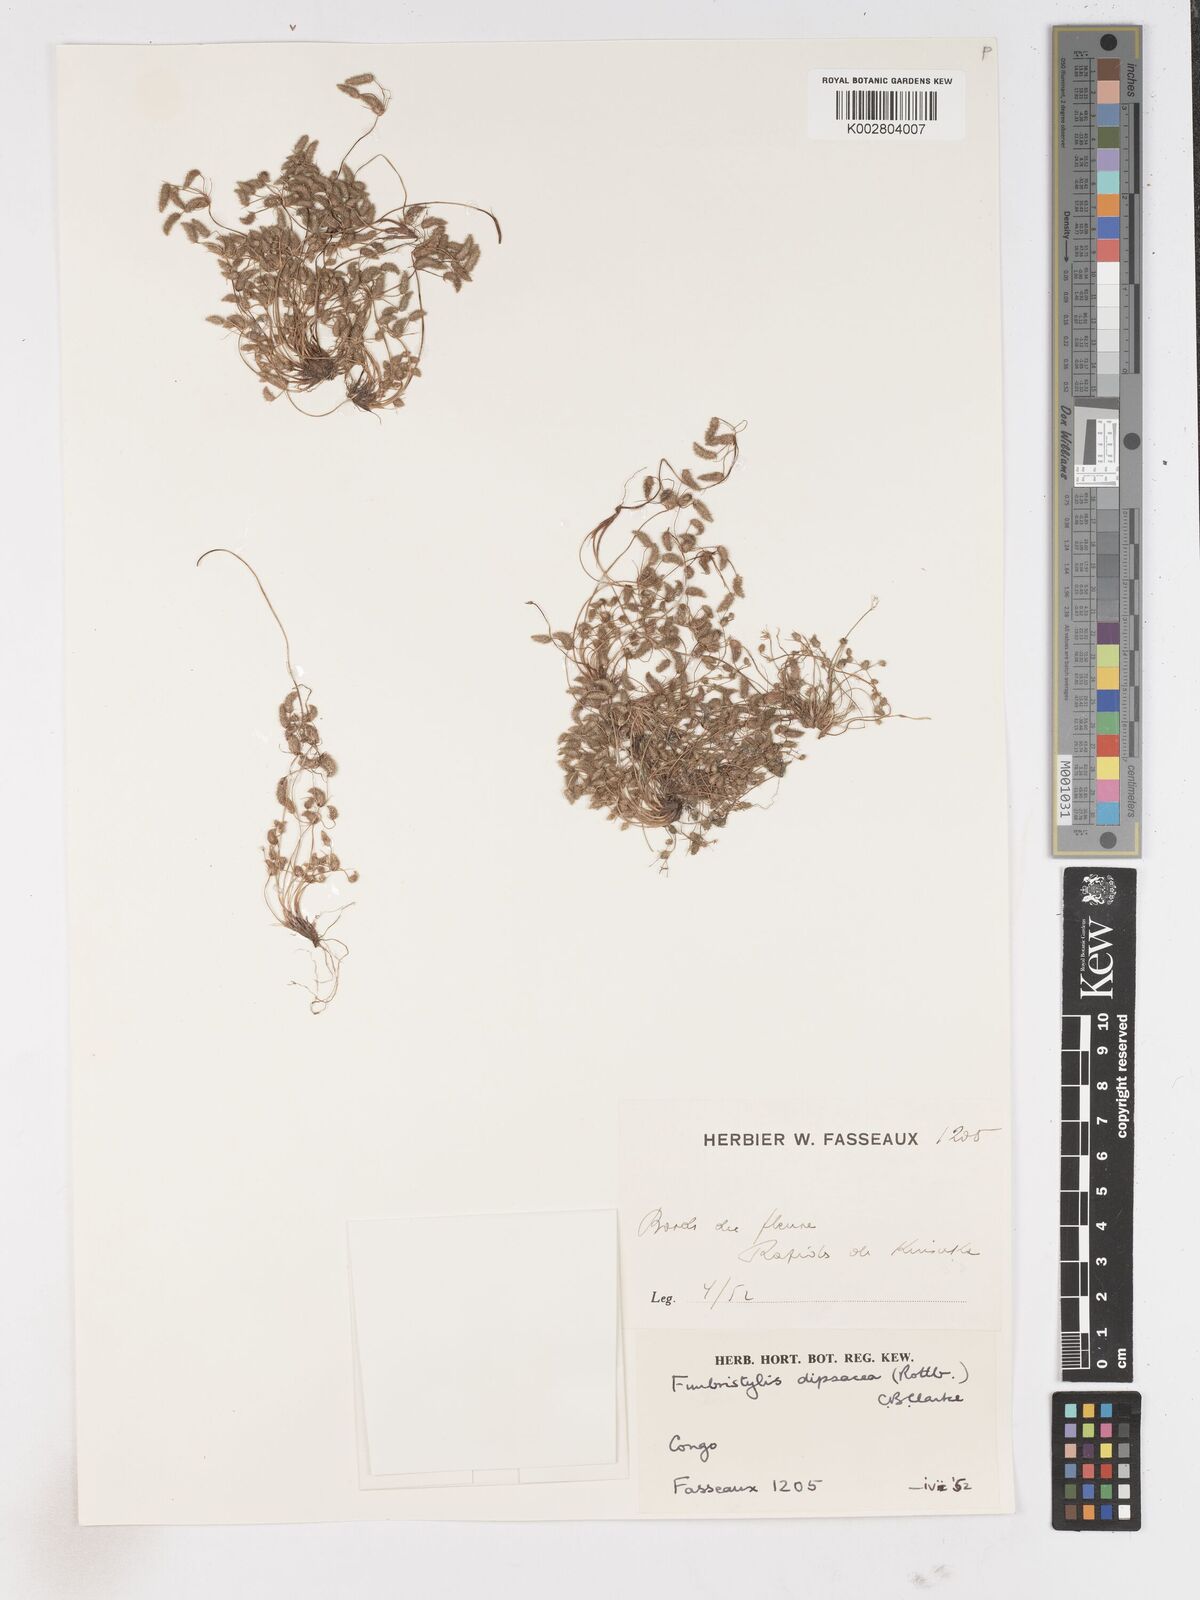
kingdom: Plantae
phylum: Tracheophyta
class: Liliopsida
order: Poales
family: Cyperaceae
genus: Fimbristylis
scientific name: Fimbristylis dipsacea
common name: Harper's fimbristylis
